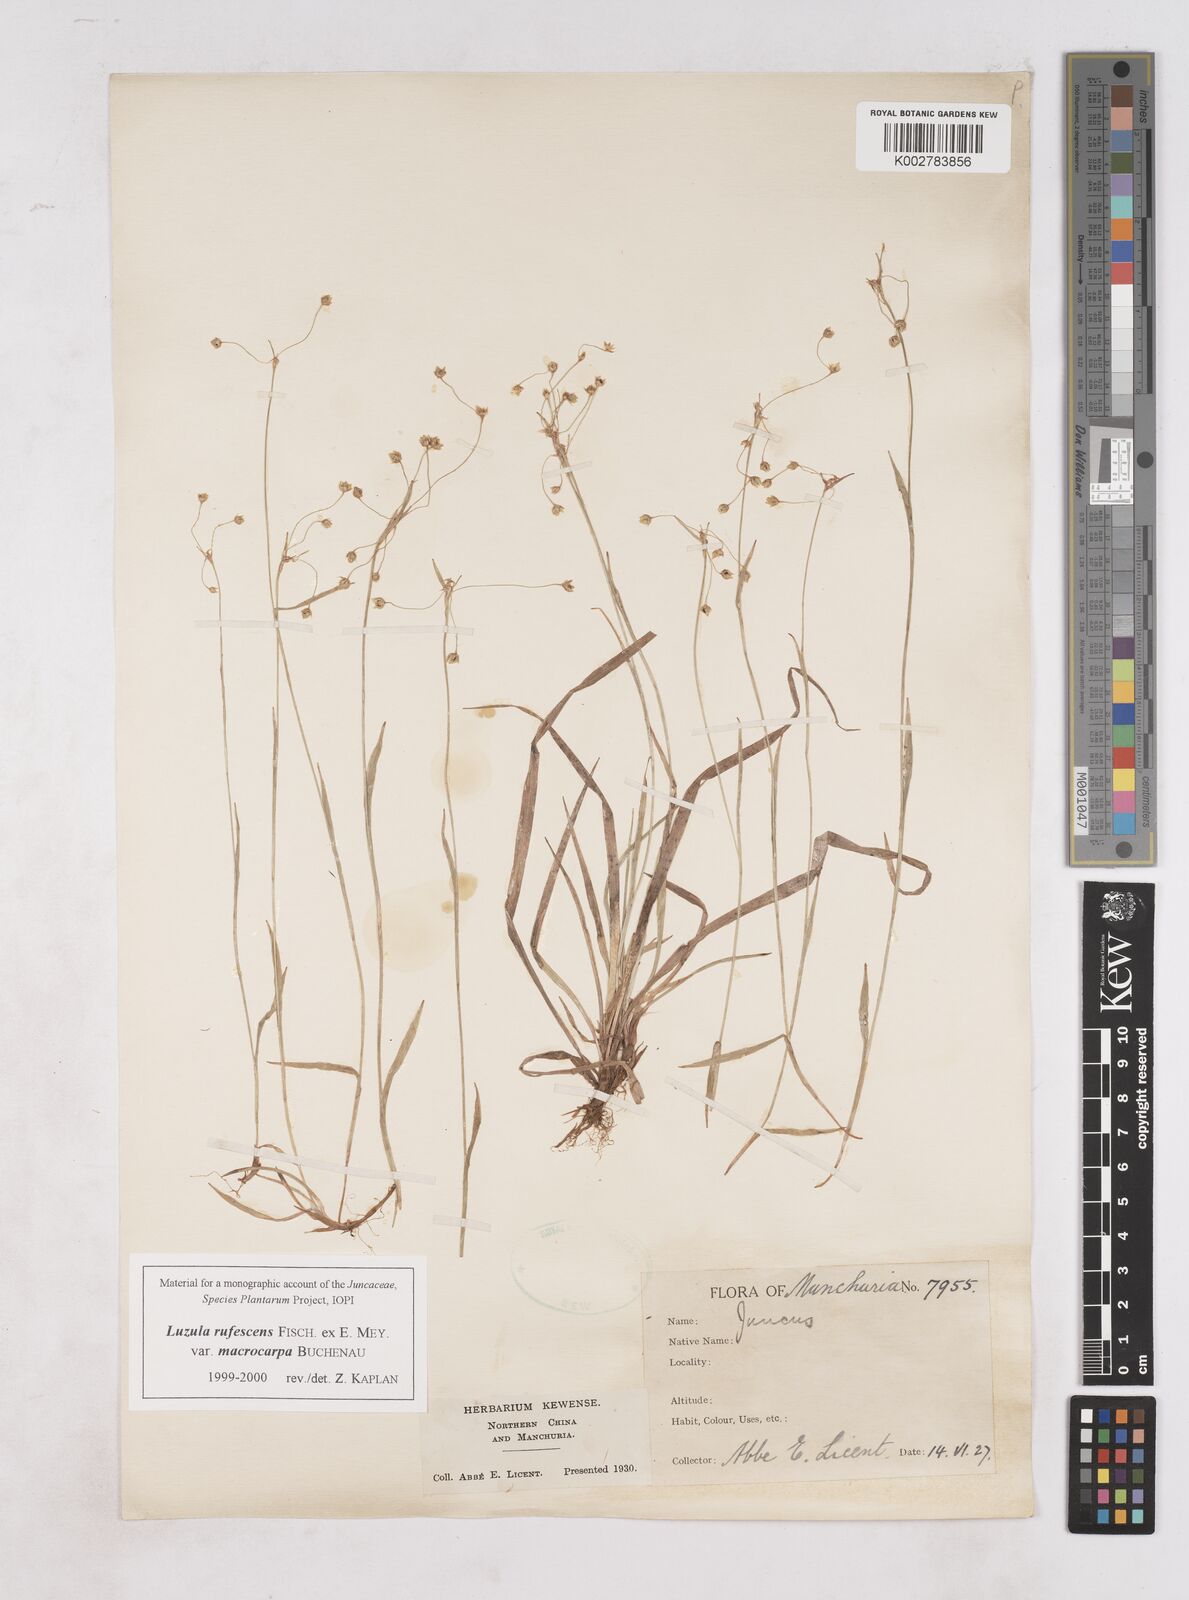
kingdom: Plantae
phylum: Tracheophyta
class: Liliopsida
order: Poales
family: Juncaceae
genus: Luzula
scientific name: Luzula rufescens
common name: Reddish woodrush
